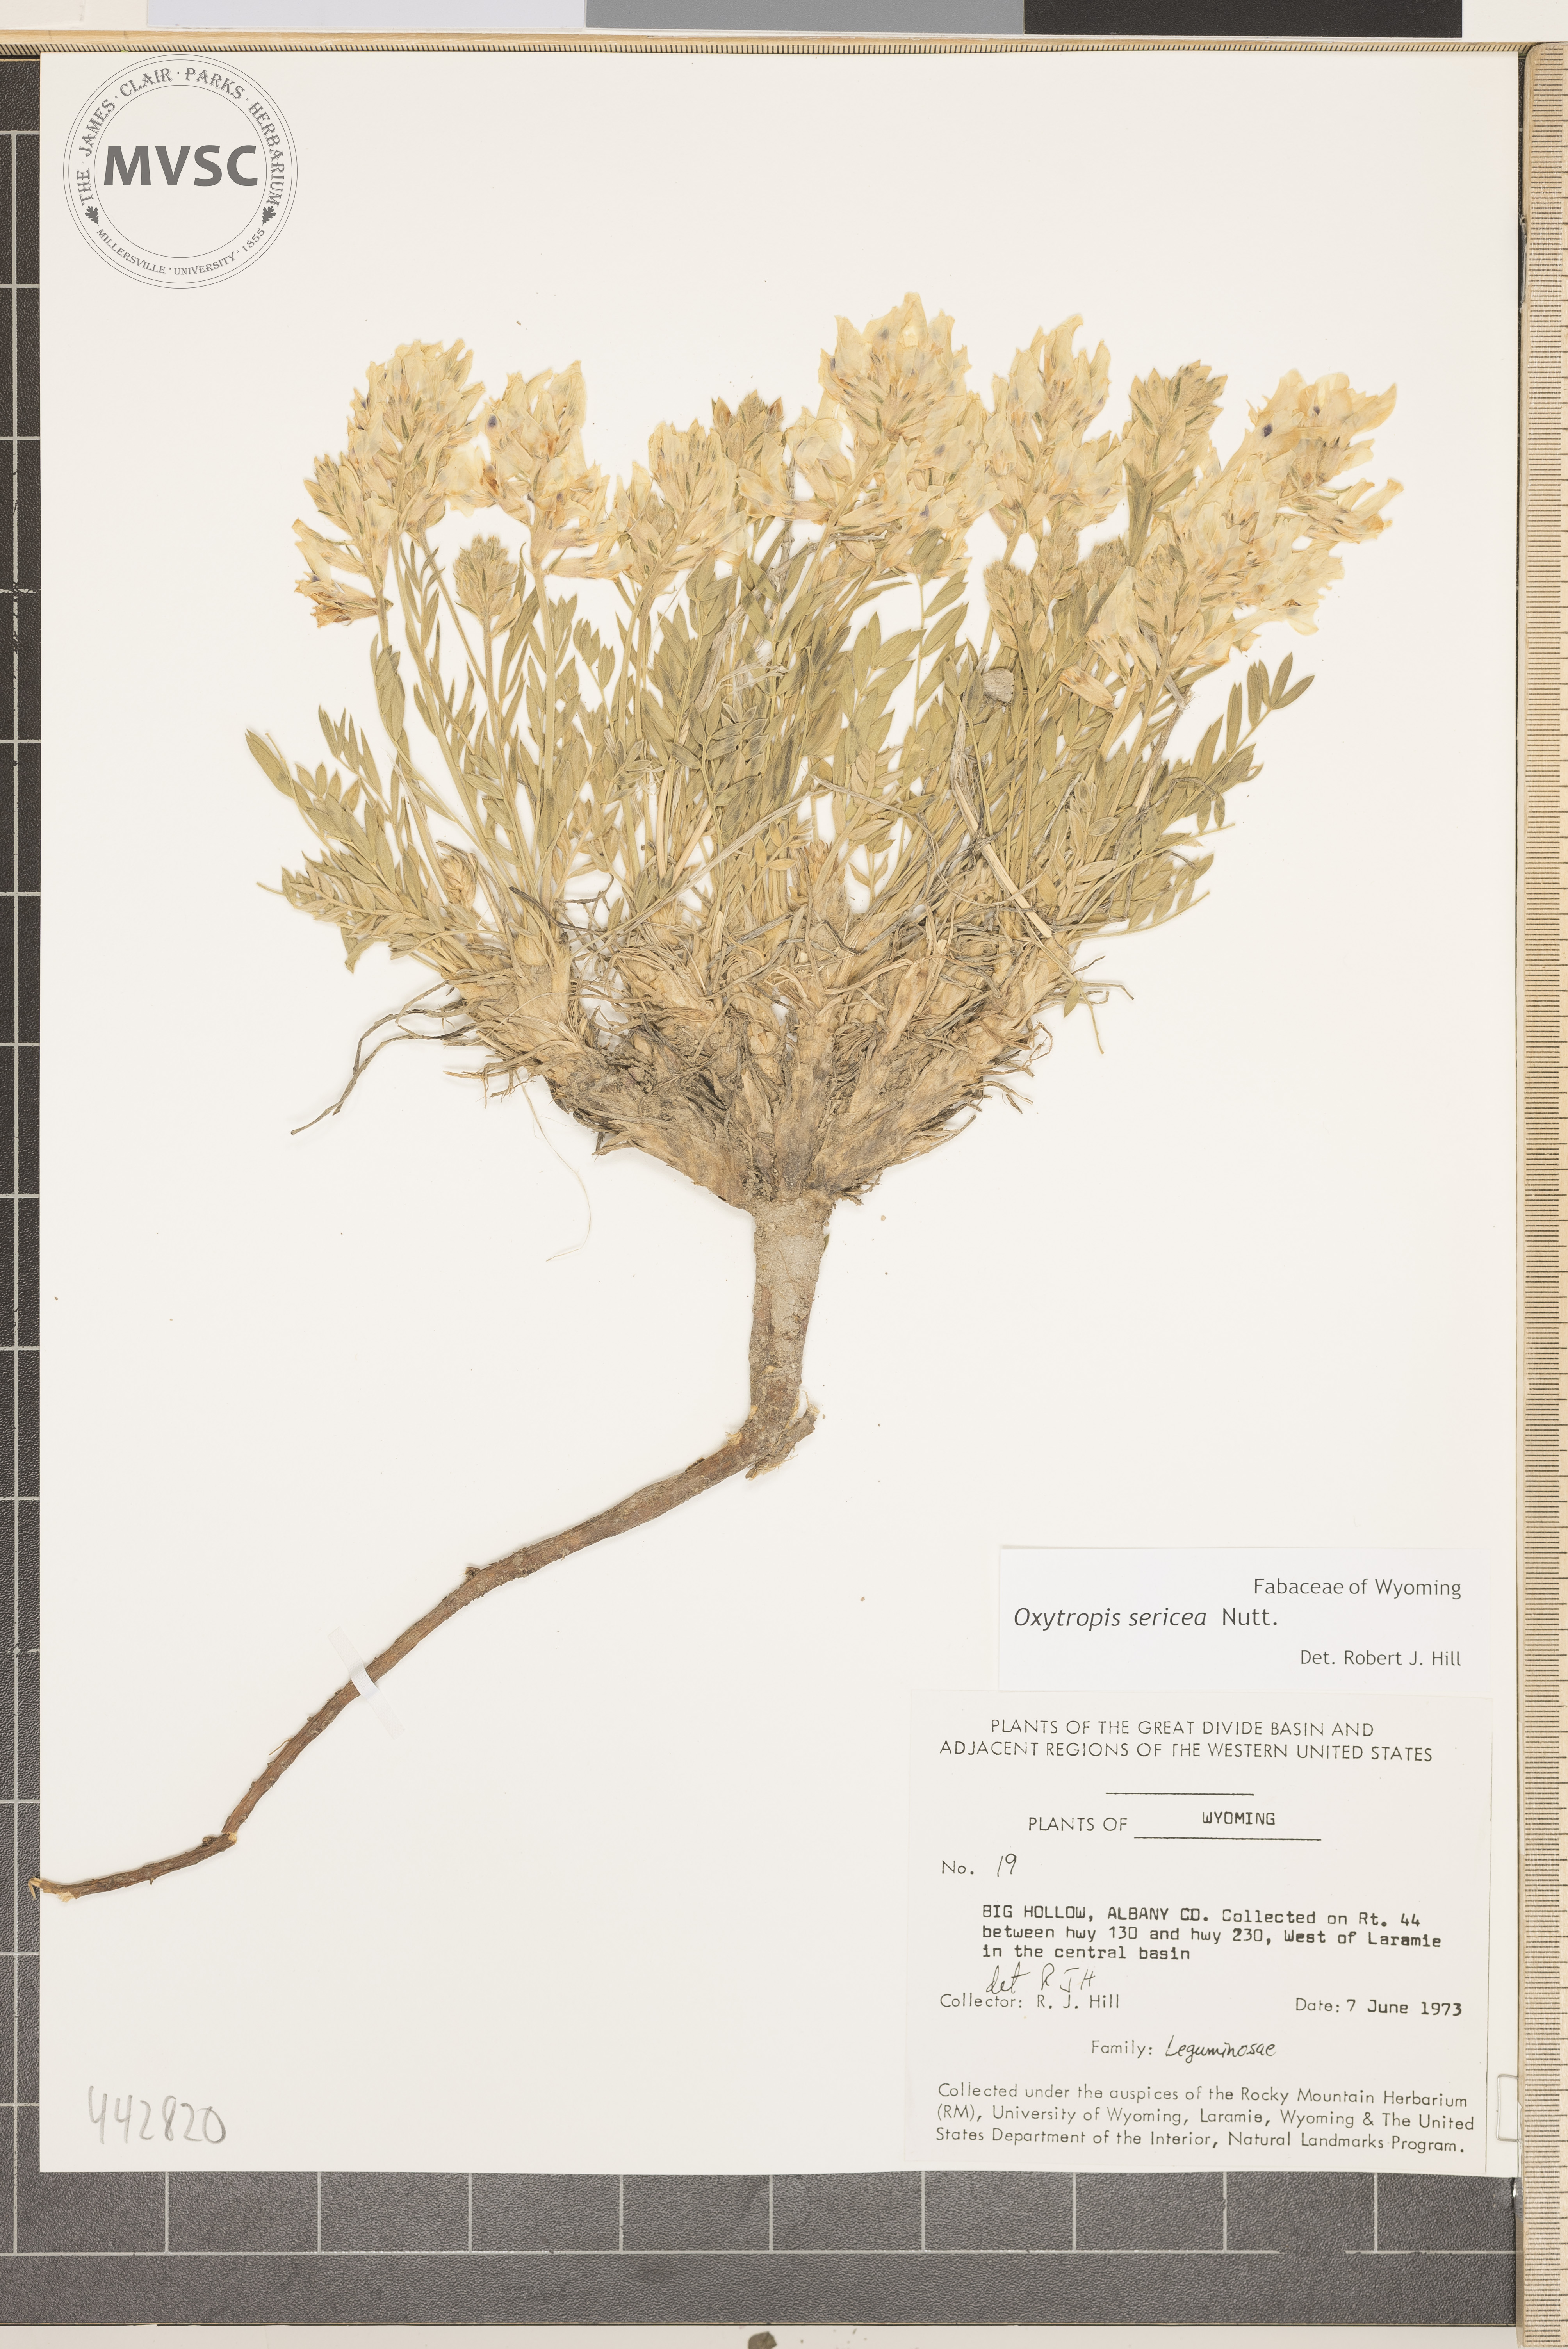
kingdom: Plantae
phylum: Tracheophyta
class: Magnoliopsida
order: Fabales
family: Fabaceae
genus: Oxytropis
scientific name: Oxytropis sericea
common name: Silky locoweed
